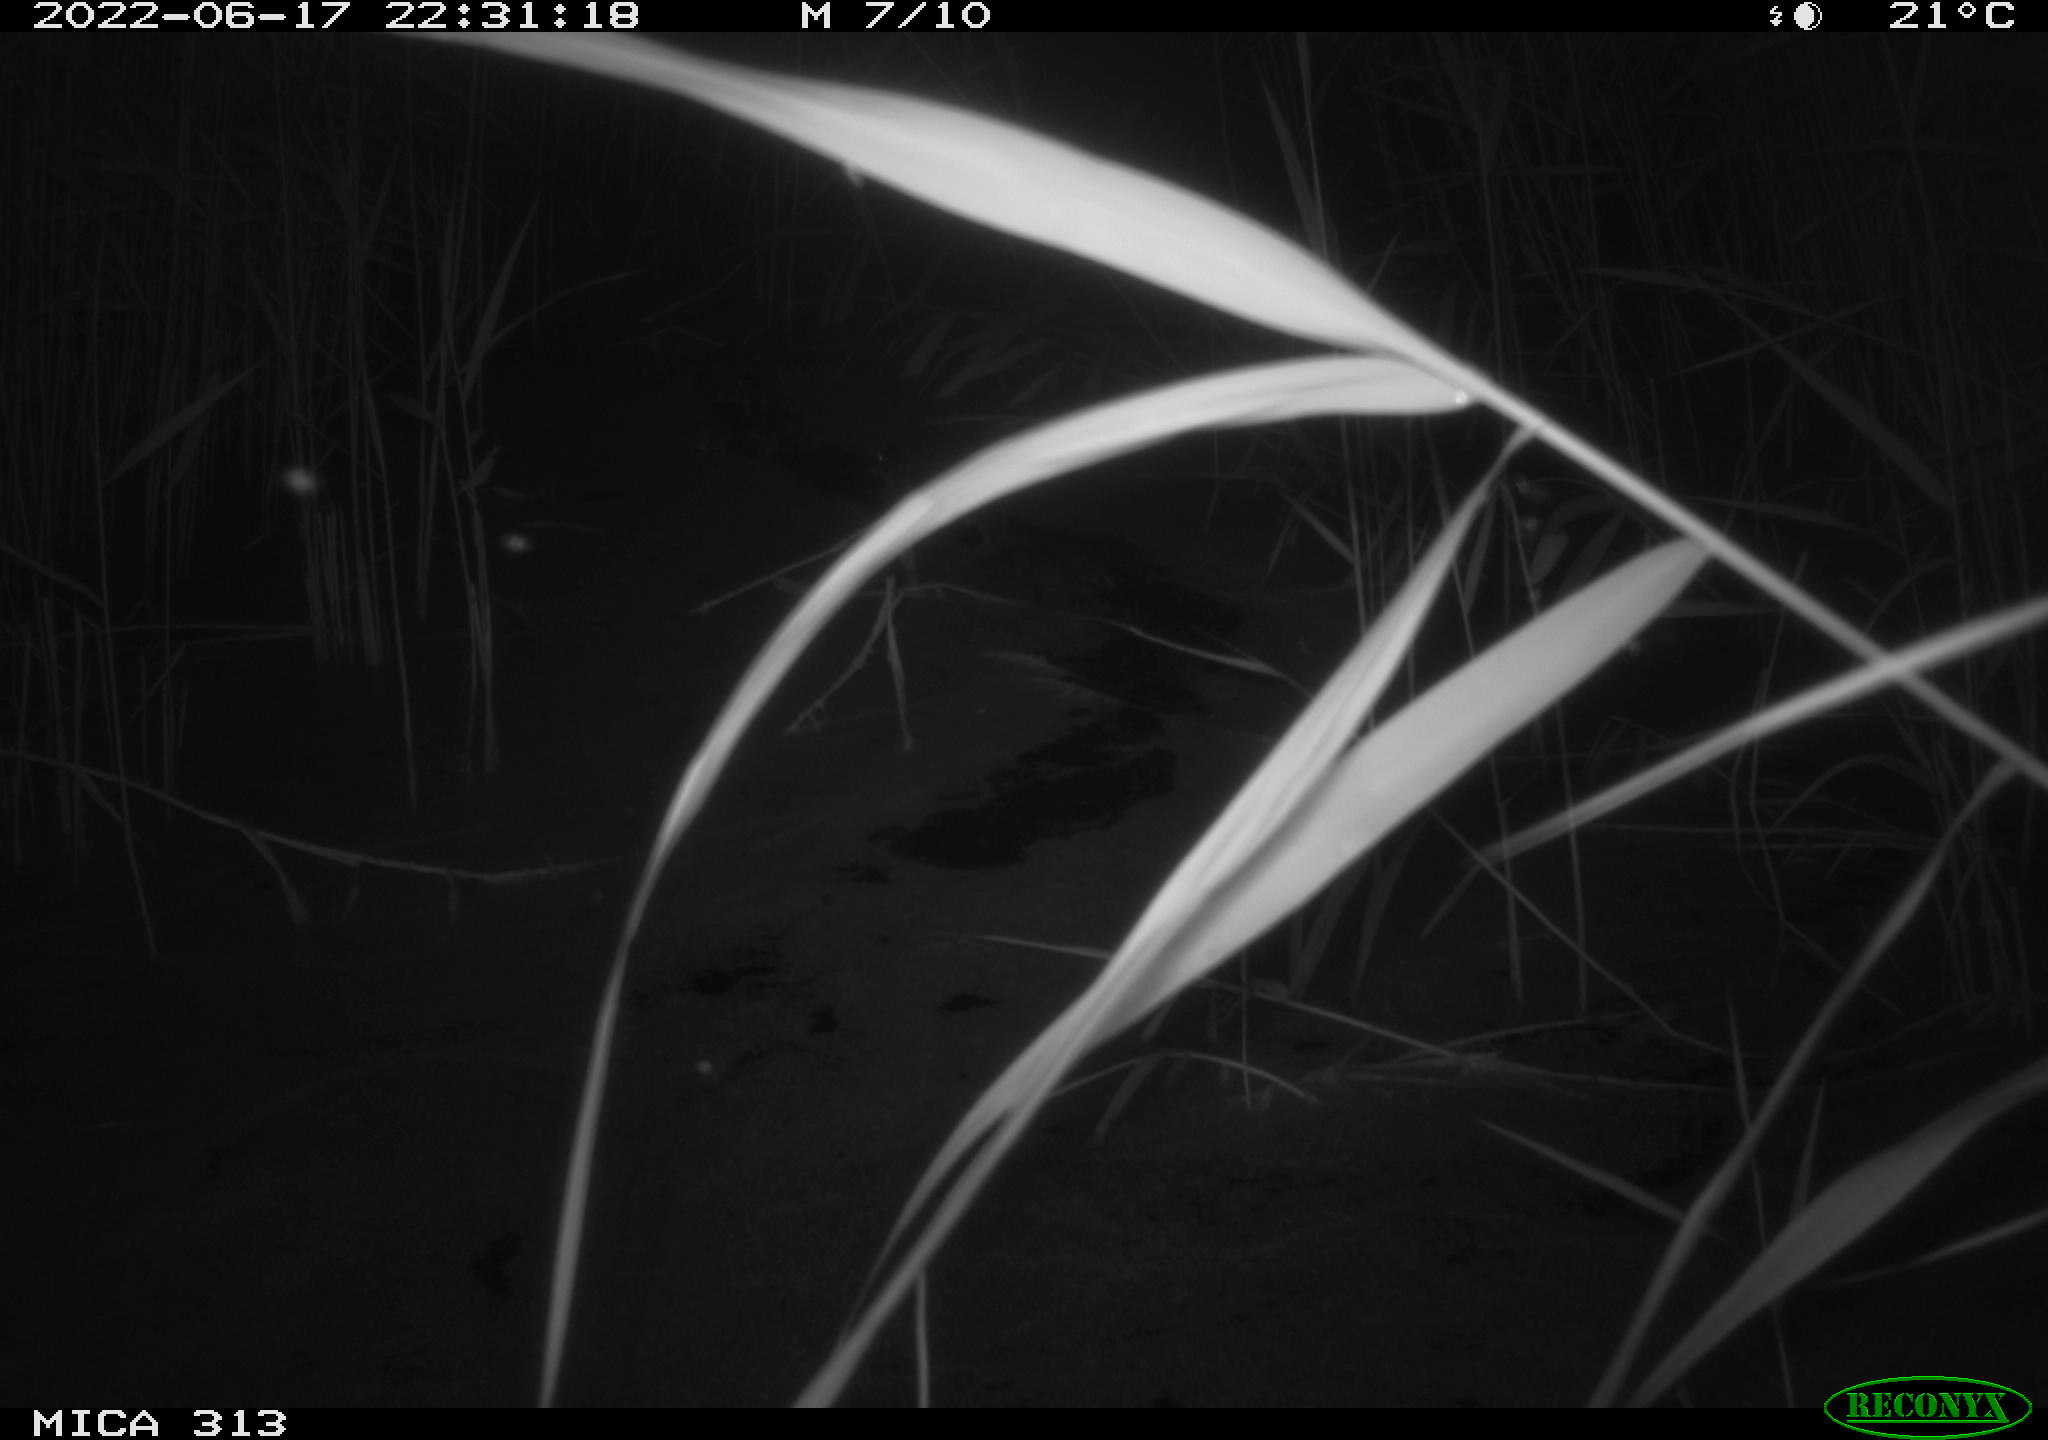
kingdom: Animalia
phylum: Chordata
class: Aves
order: Anseriformes
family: Anatidae
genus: Anas
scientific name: Anas platyrhynchos
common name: Mallard
